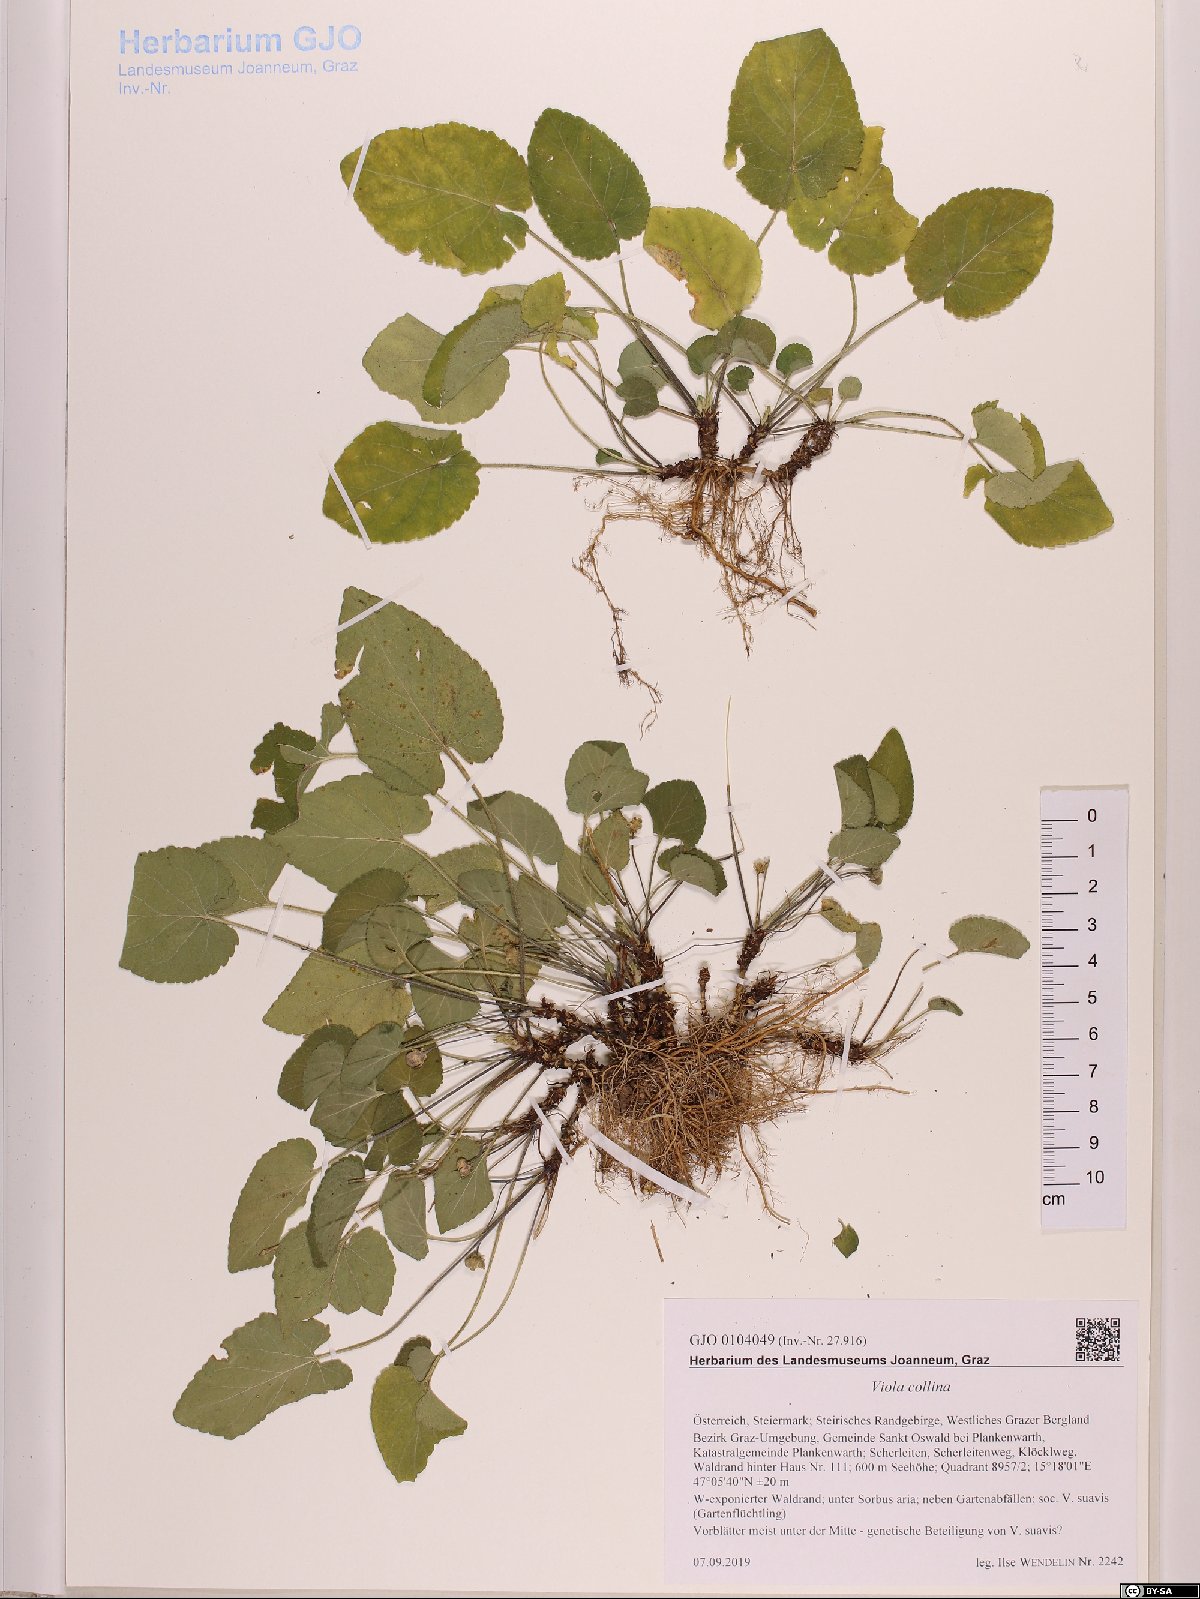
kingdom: Plantae
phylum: Tracheophyta
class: Magnoliopsida
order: Malpighiales
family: Violaceae
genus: Viola
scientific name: Viola collina
